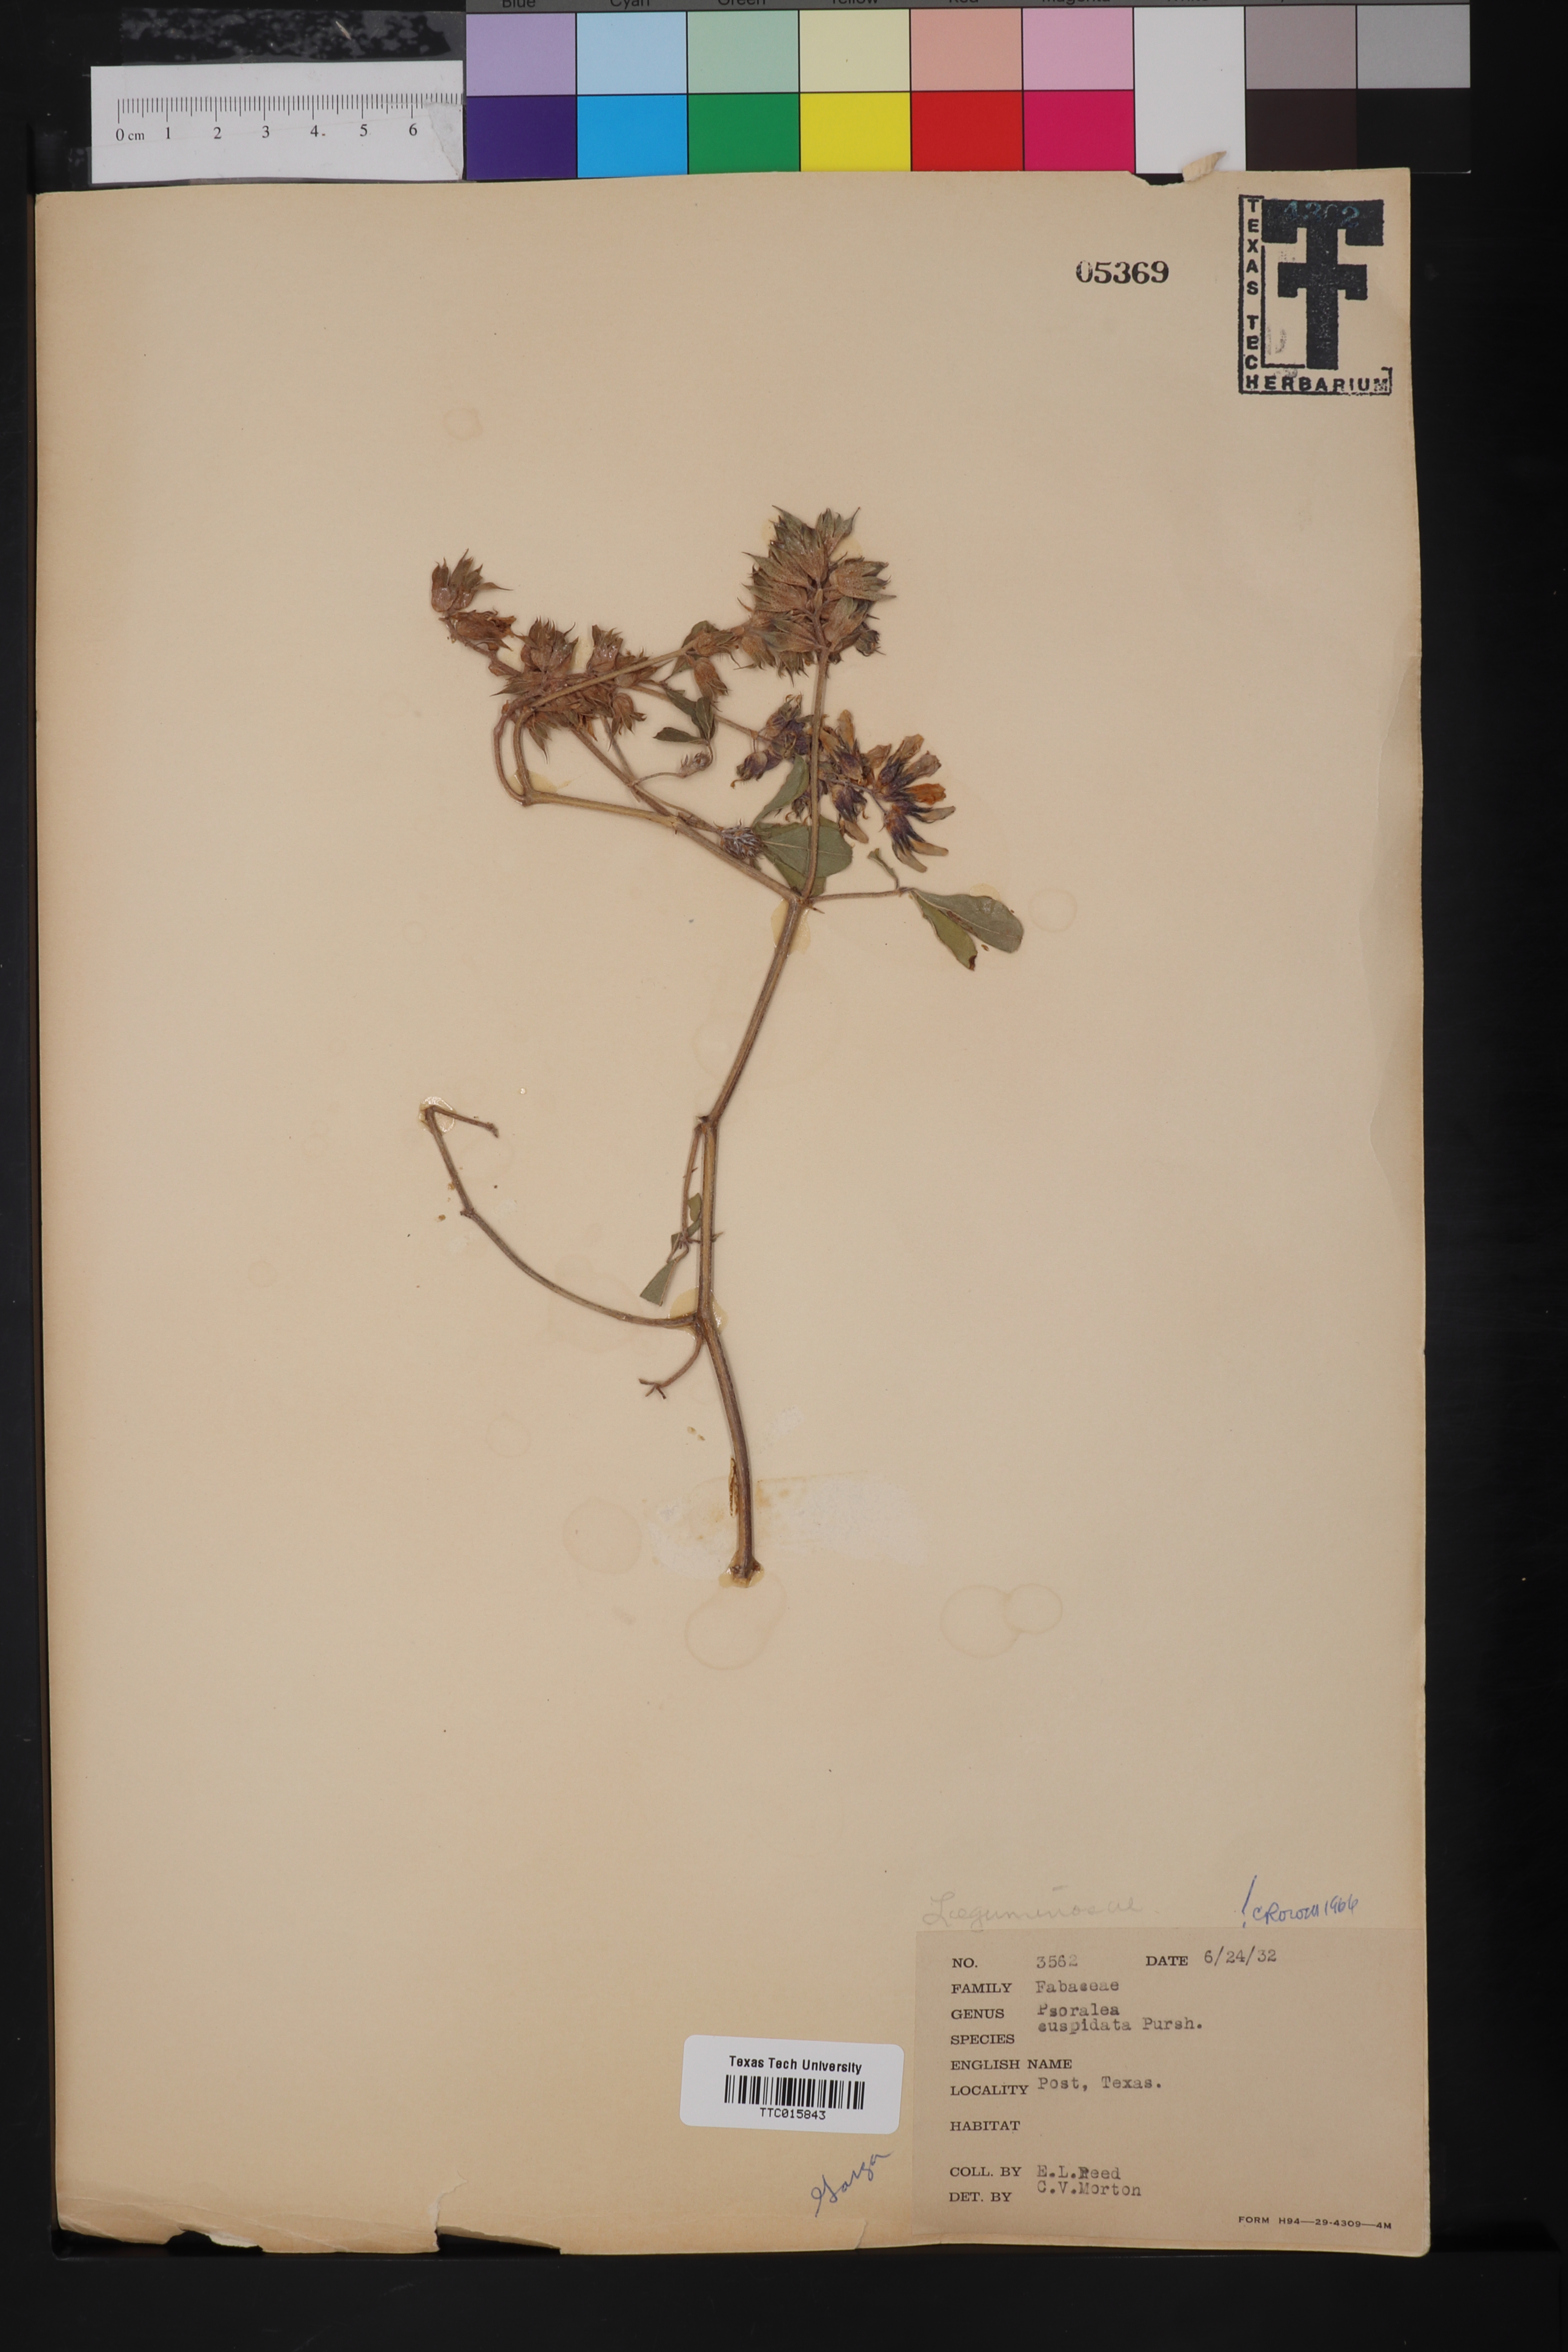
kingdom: Plantae
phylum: Tracheophyta
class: Magnoliopsida
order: Fabales
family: Fabaceae
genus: Pediomelum
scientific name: Pediomelum cuspidatum
